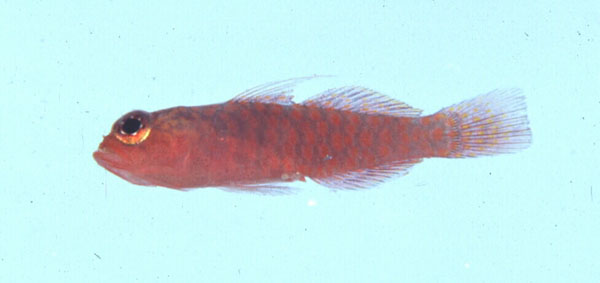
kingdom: Animalia
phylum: Chordata
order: Perciformes
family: Gobiidae
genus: Trimma
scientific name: Trimma volcana
